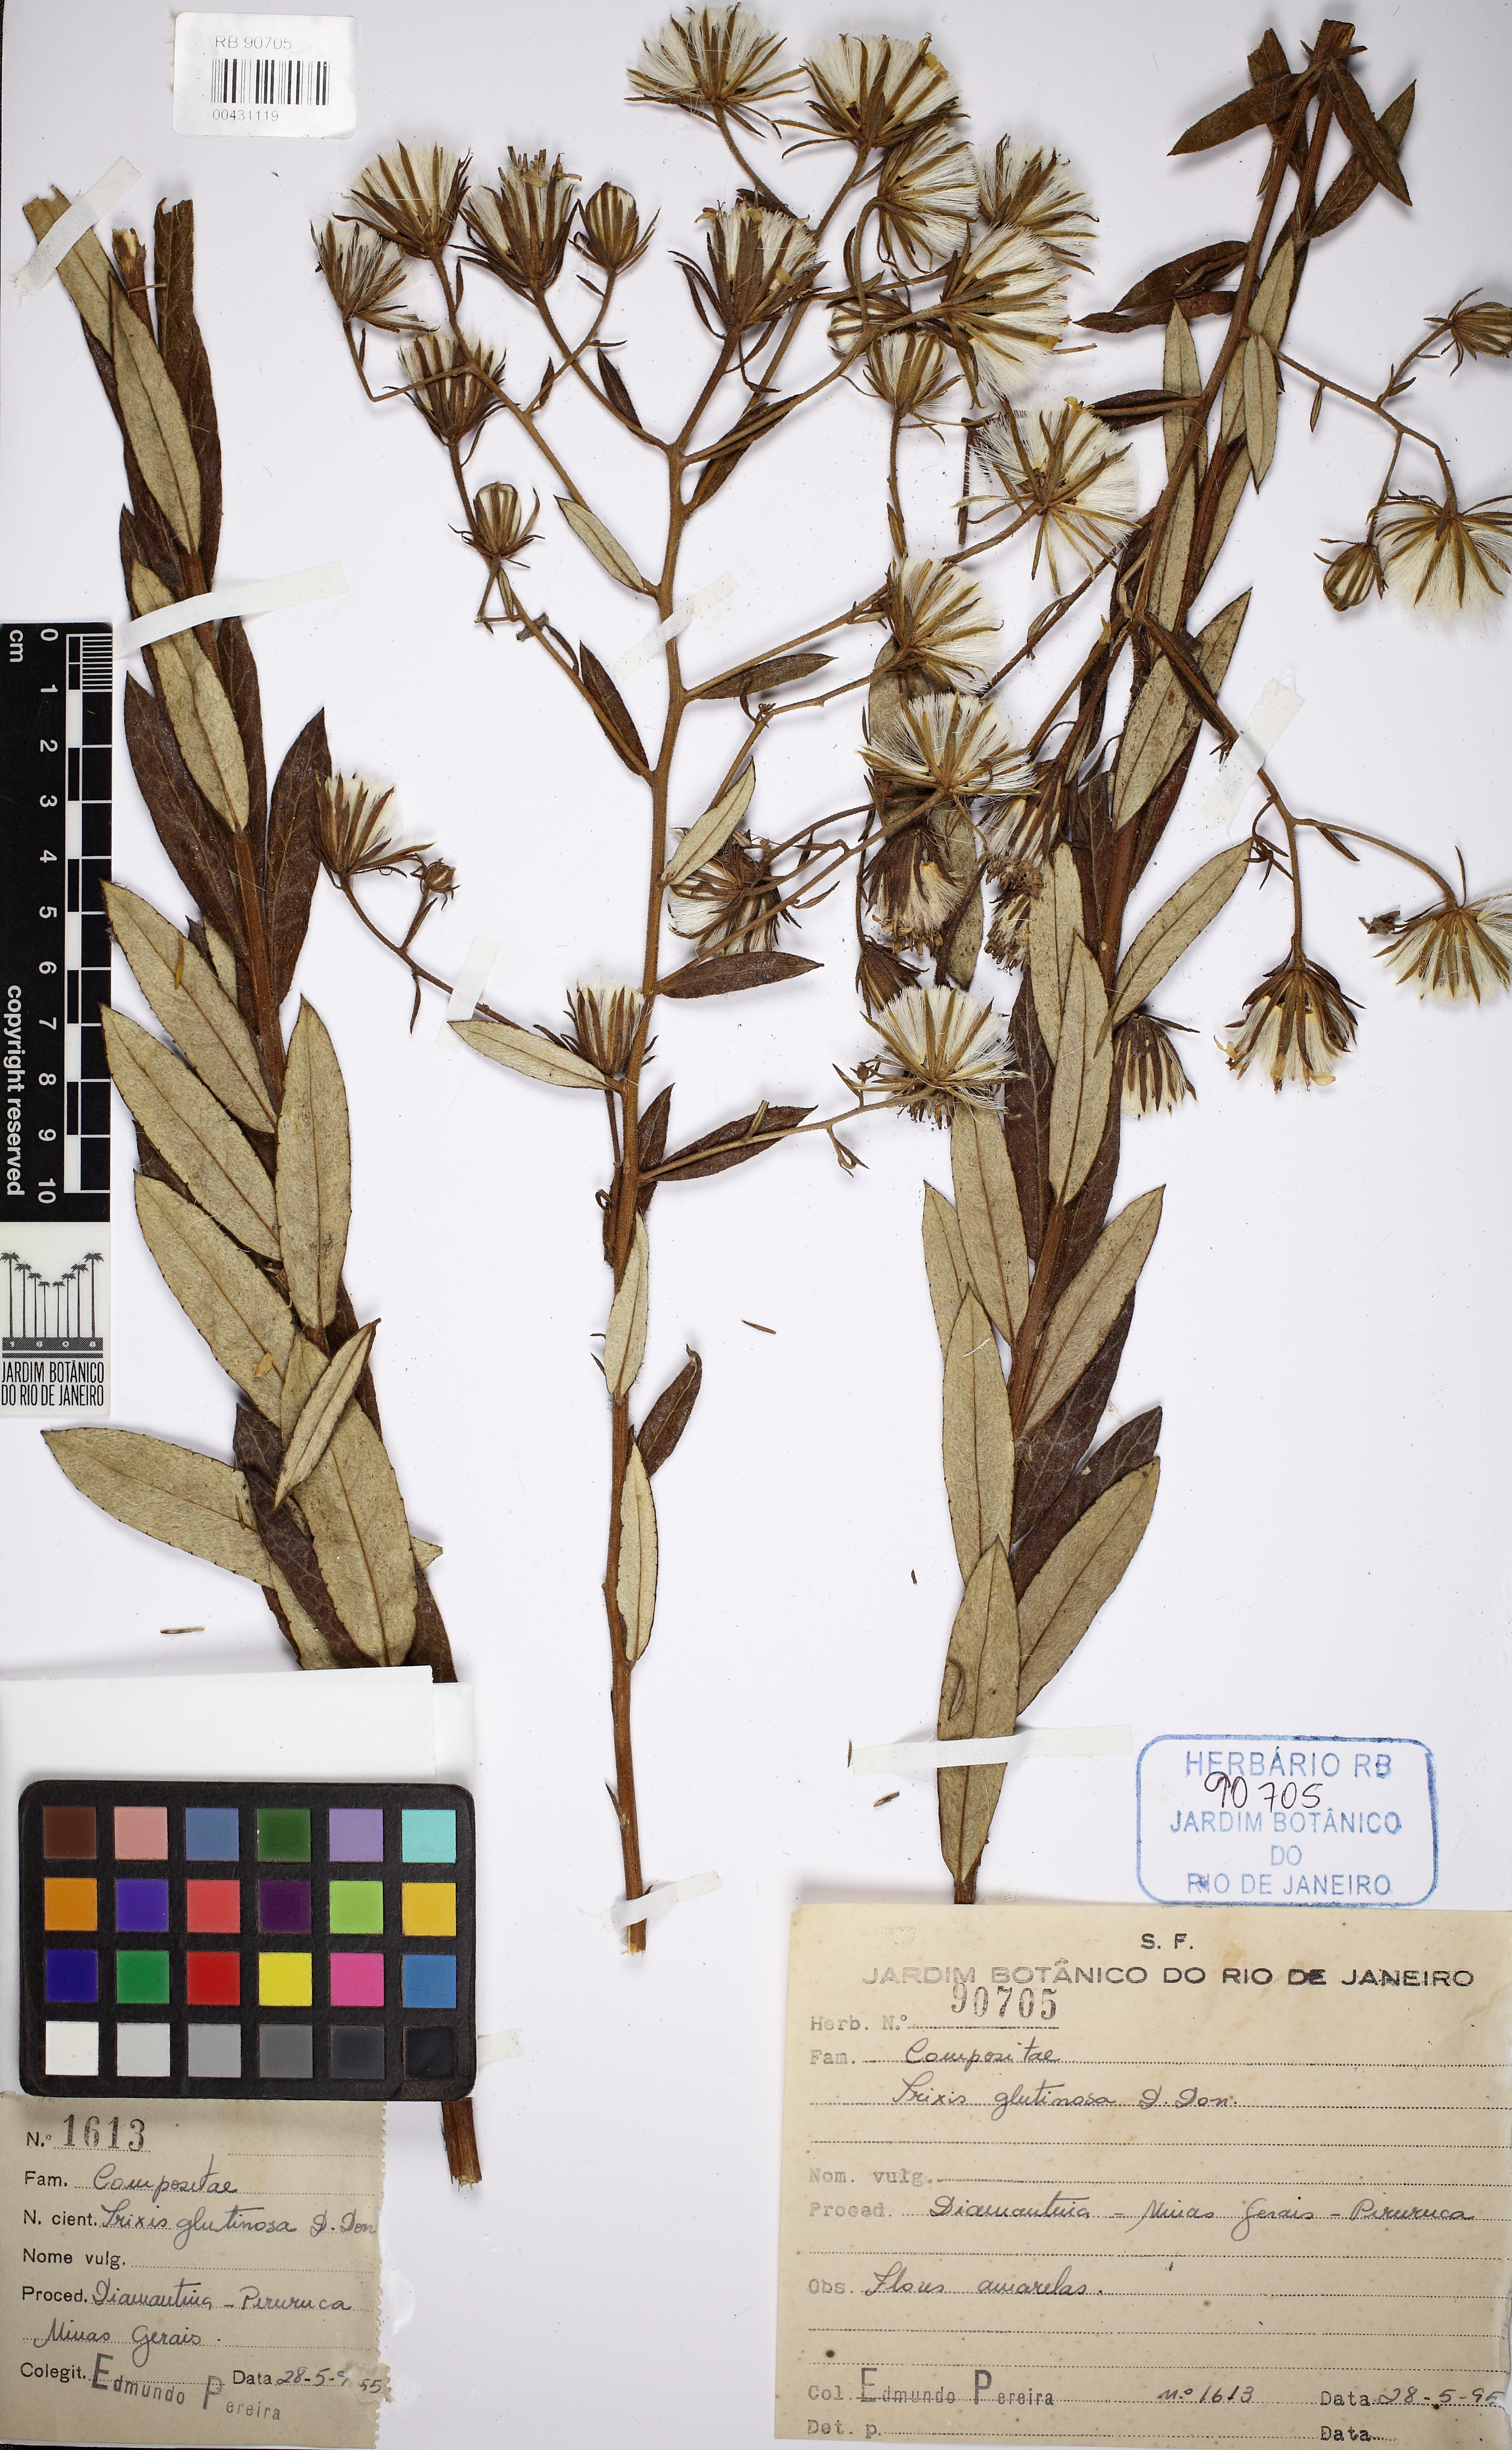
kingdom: Plantae
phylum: Tracheophyta
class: Magnoliopsida
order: Asterales
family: Asteraceae
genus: Trixis
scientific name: Trixis glutinosa
